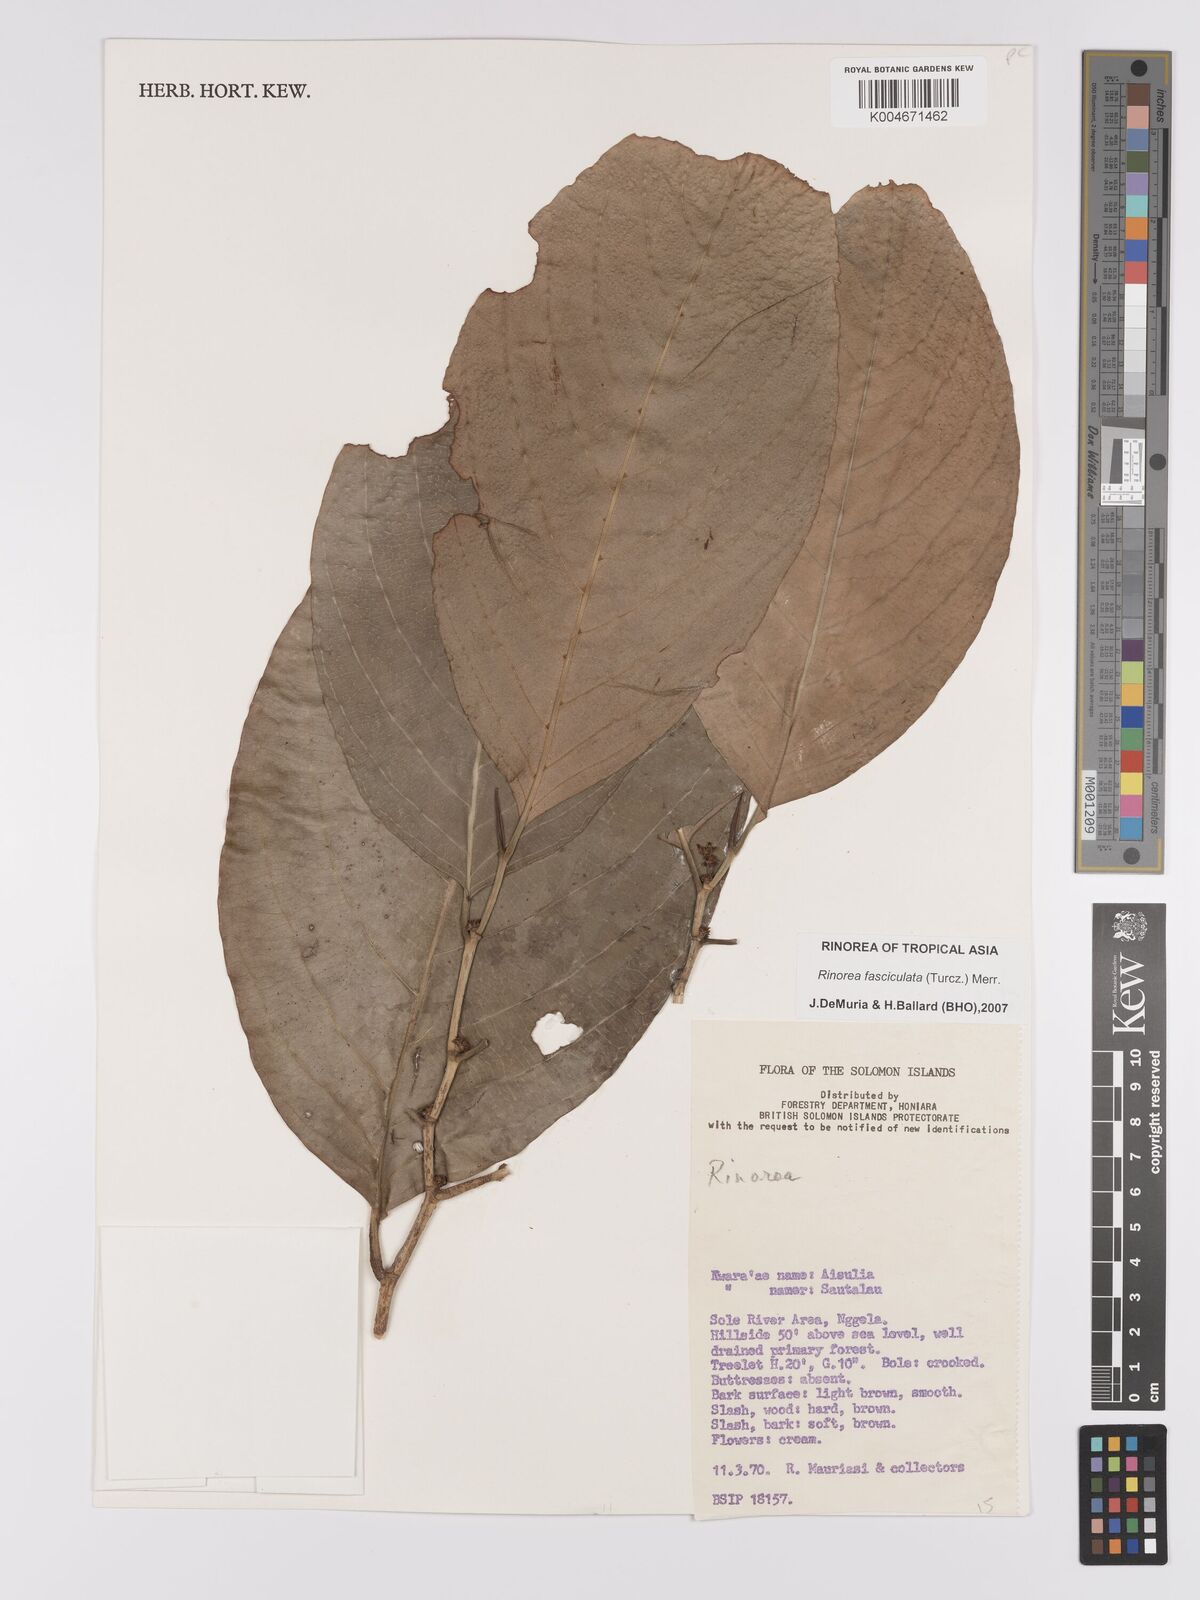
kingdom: Plantae
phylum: Tracheophyta
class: Magnoliopsida
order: Malpighiales
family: Violaceae
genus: Rinorea
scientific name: Rinorea bengalensis
